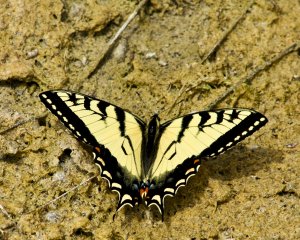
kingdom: Animalia
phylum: Arthropoda
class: Insecta
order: Lepidoptera
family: Papilionidae
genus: Pterourus
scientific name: Pterourus canadensis
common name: Canadian Tiger Swallowtail
